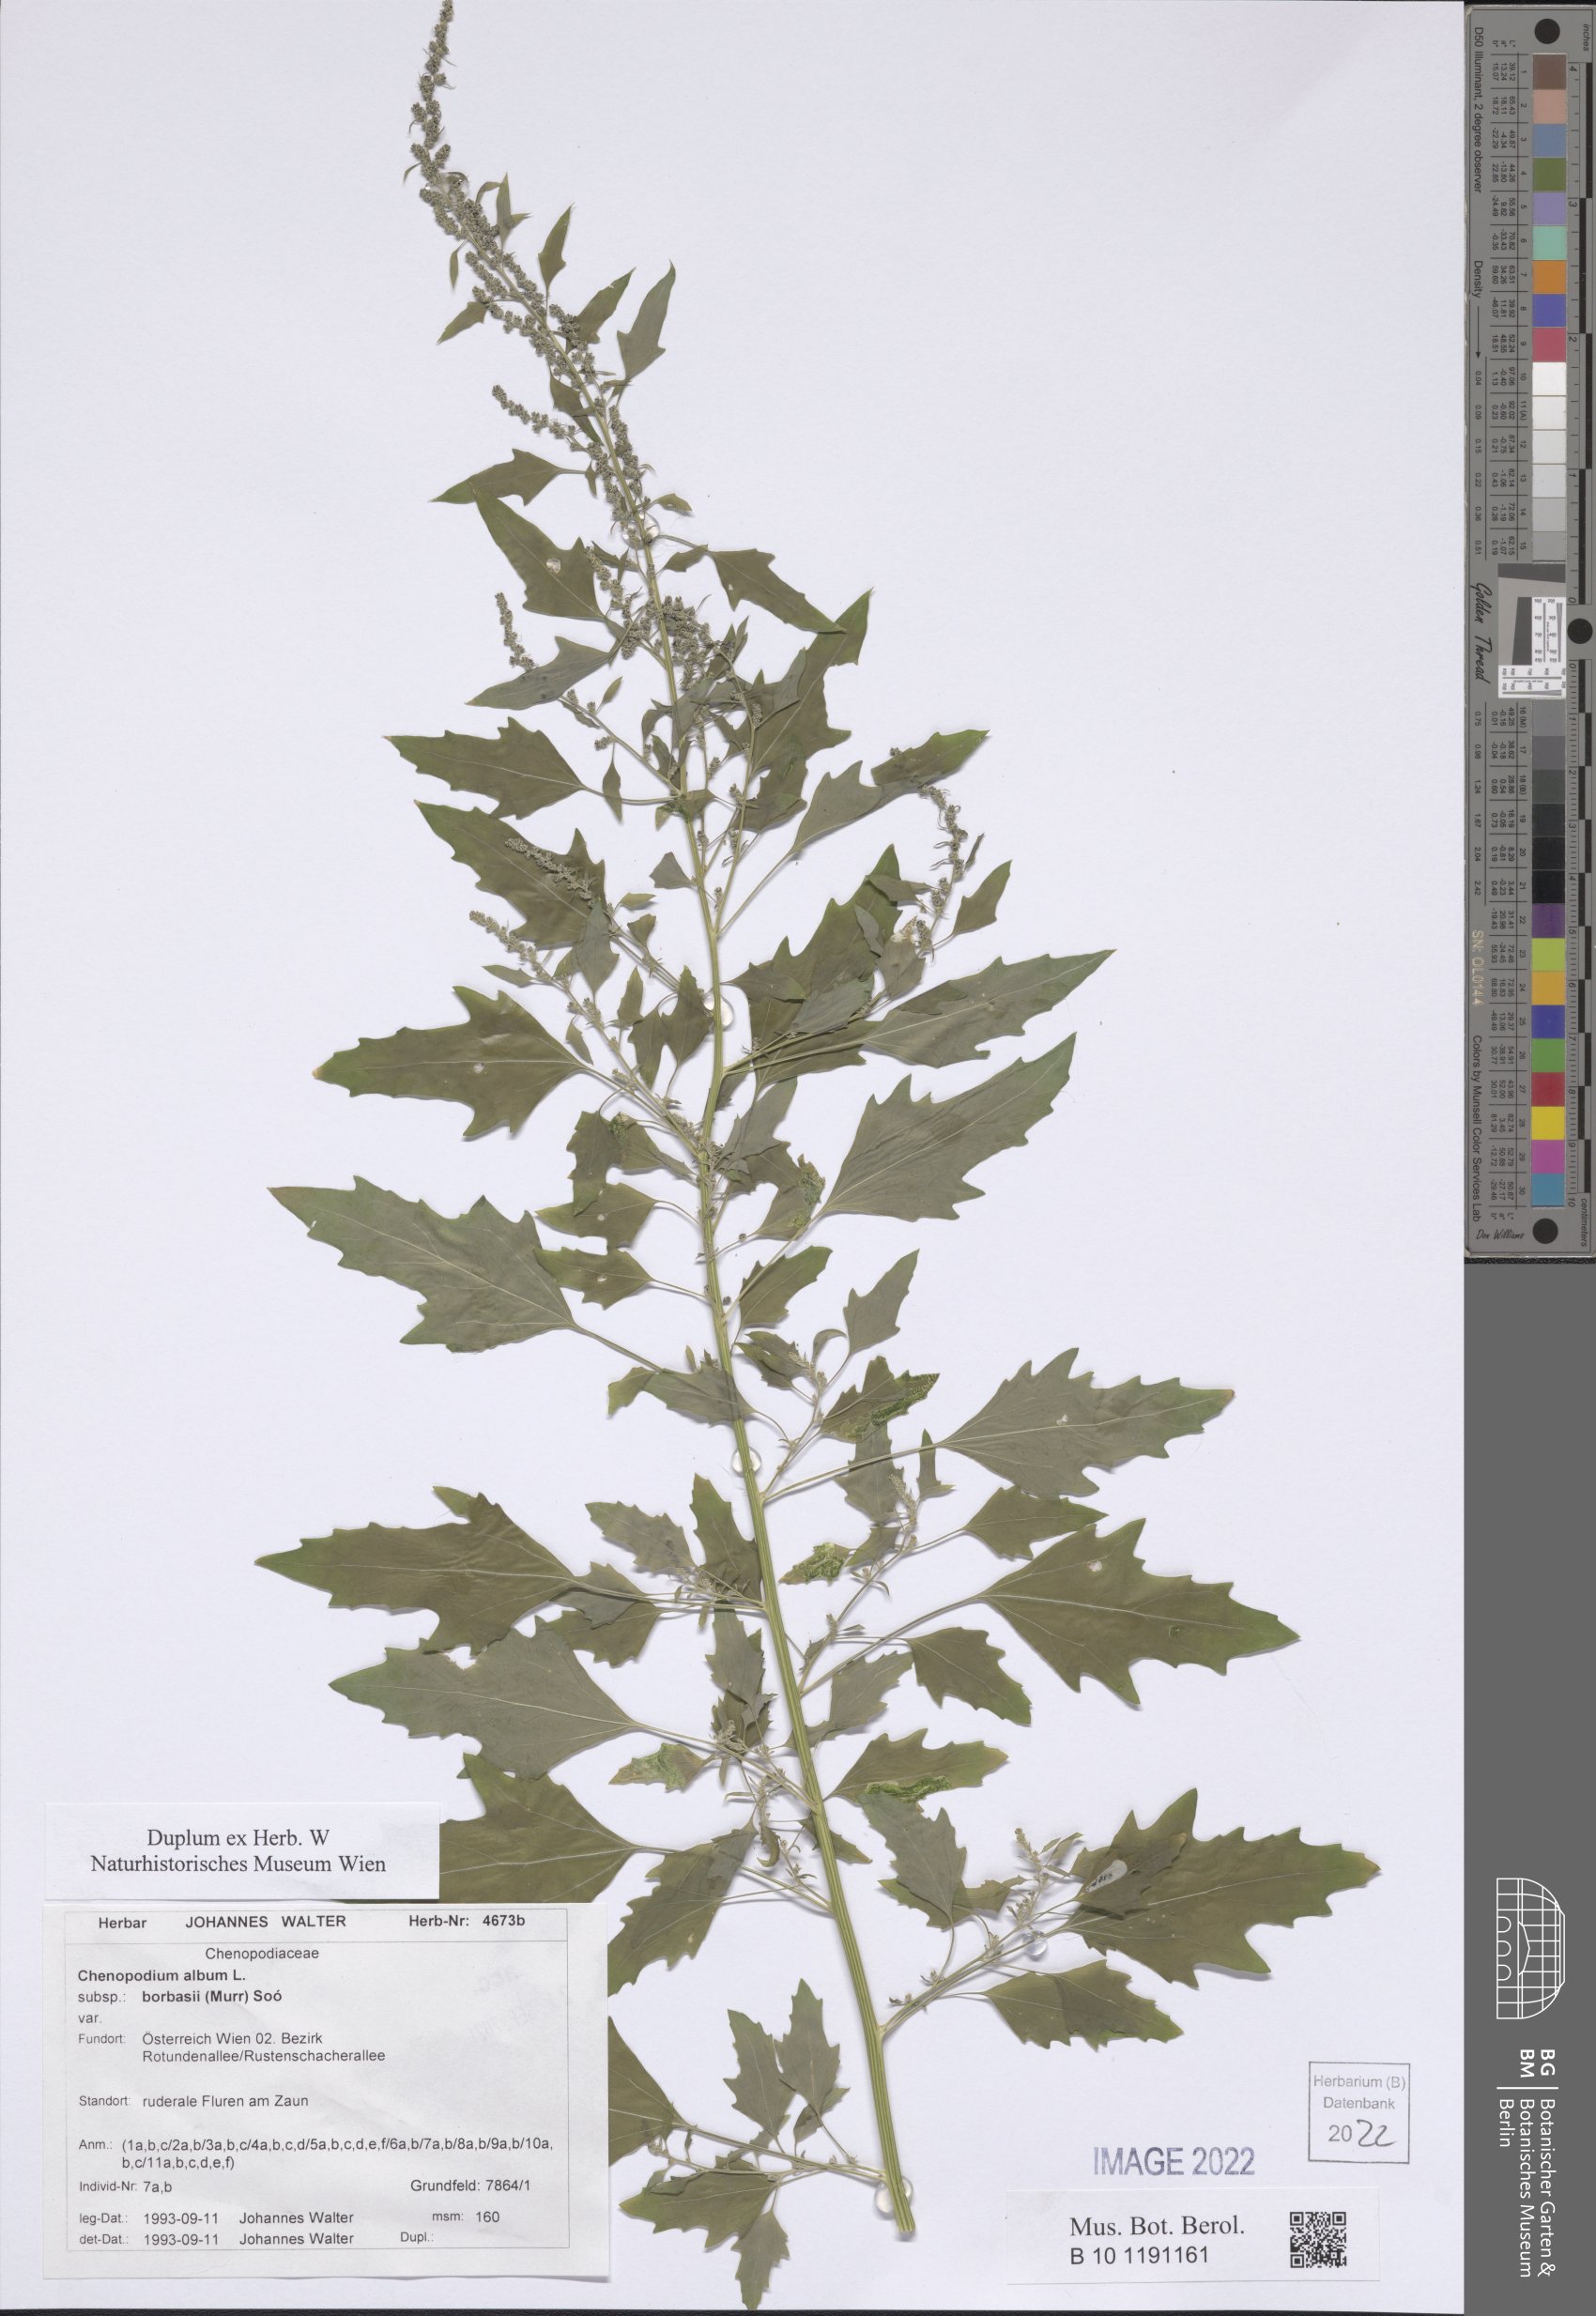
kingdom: Plantae
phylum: Tracheophyta
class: Magnoliopsida
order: Caryophyllales
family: Amaranthaceae
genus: Chenopodium
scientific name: Chenopodium borbasii
